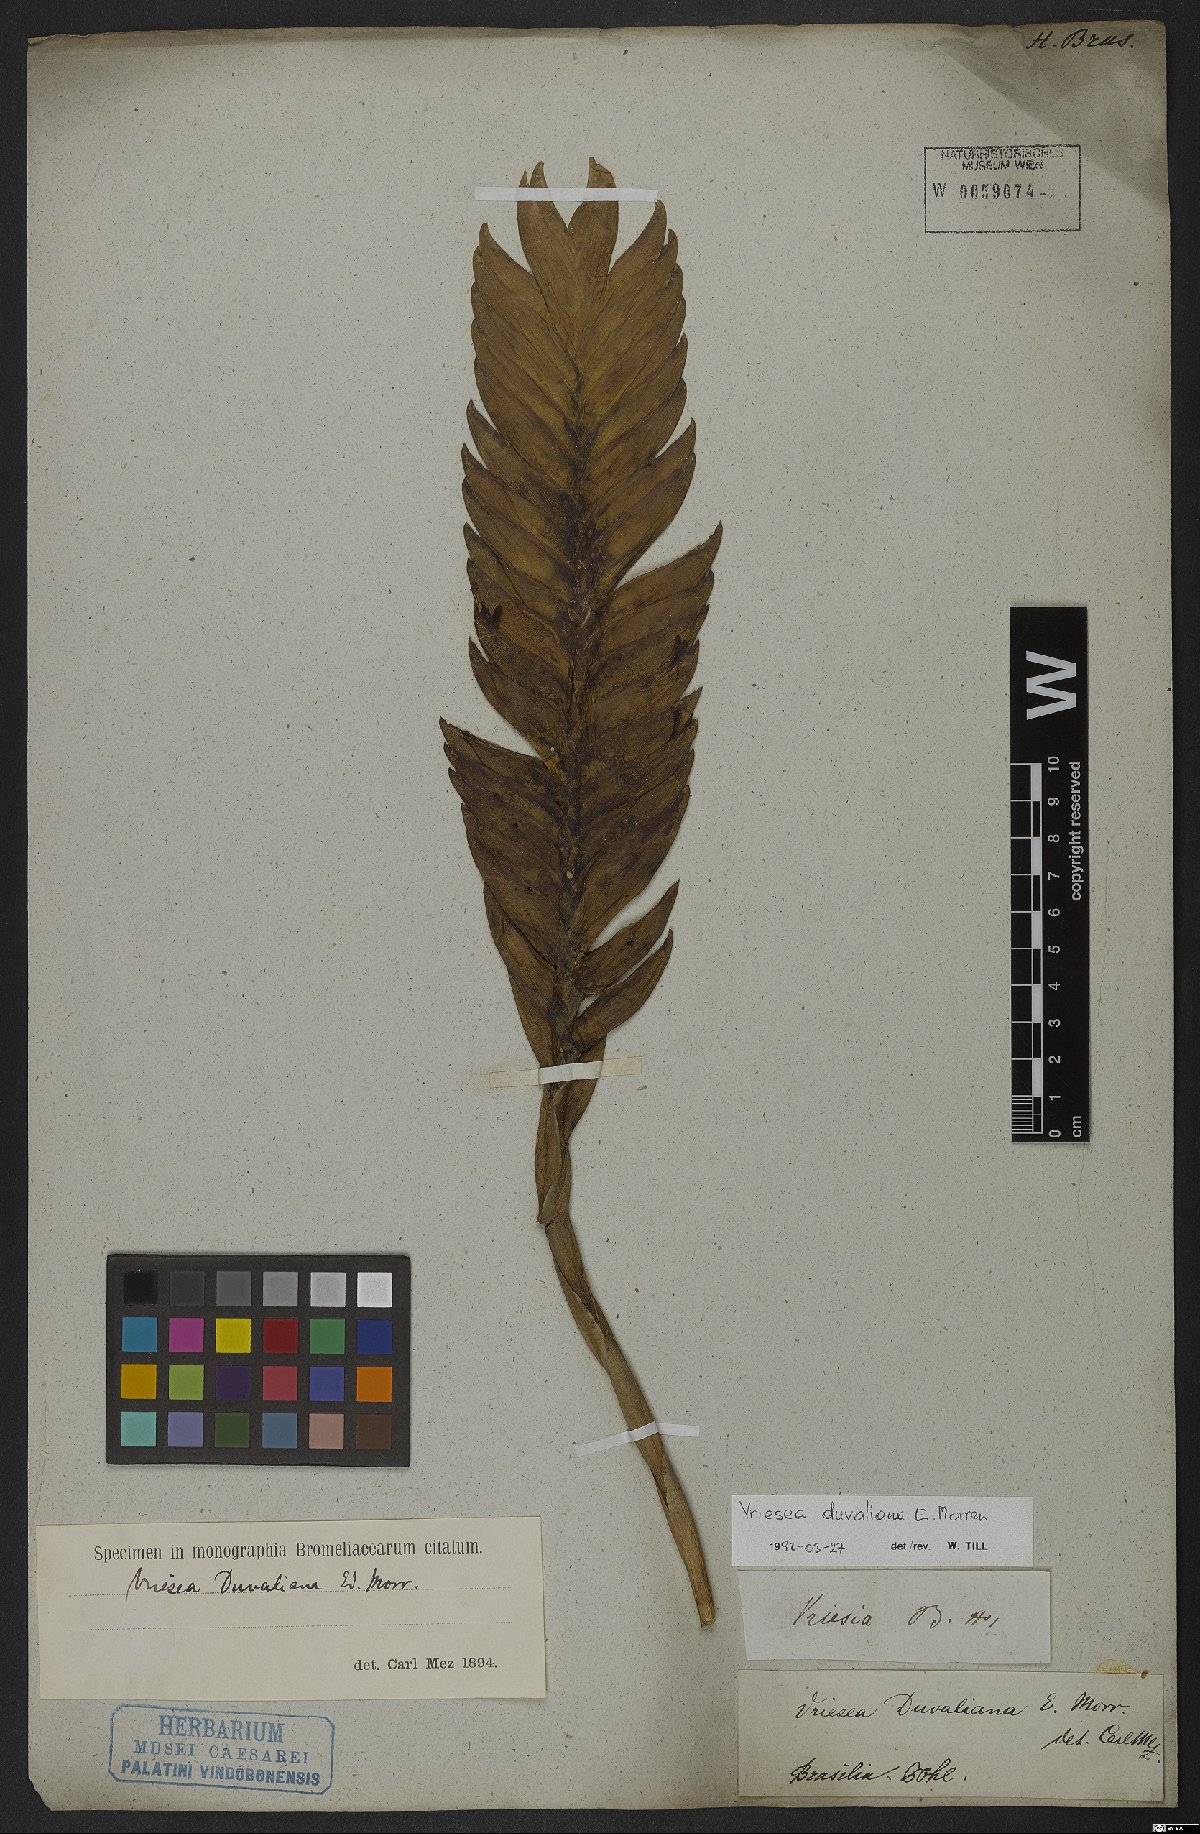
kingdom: Plantae
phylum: Tracheophyta
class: Liliopsida
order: Poales
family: Bromeliaceae
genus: Vriesea
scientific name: Vriesea duvaliana
